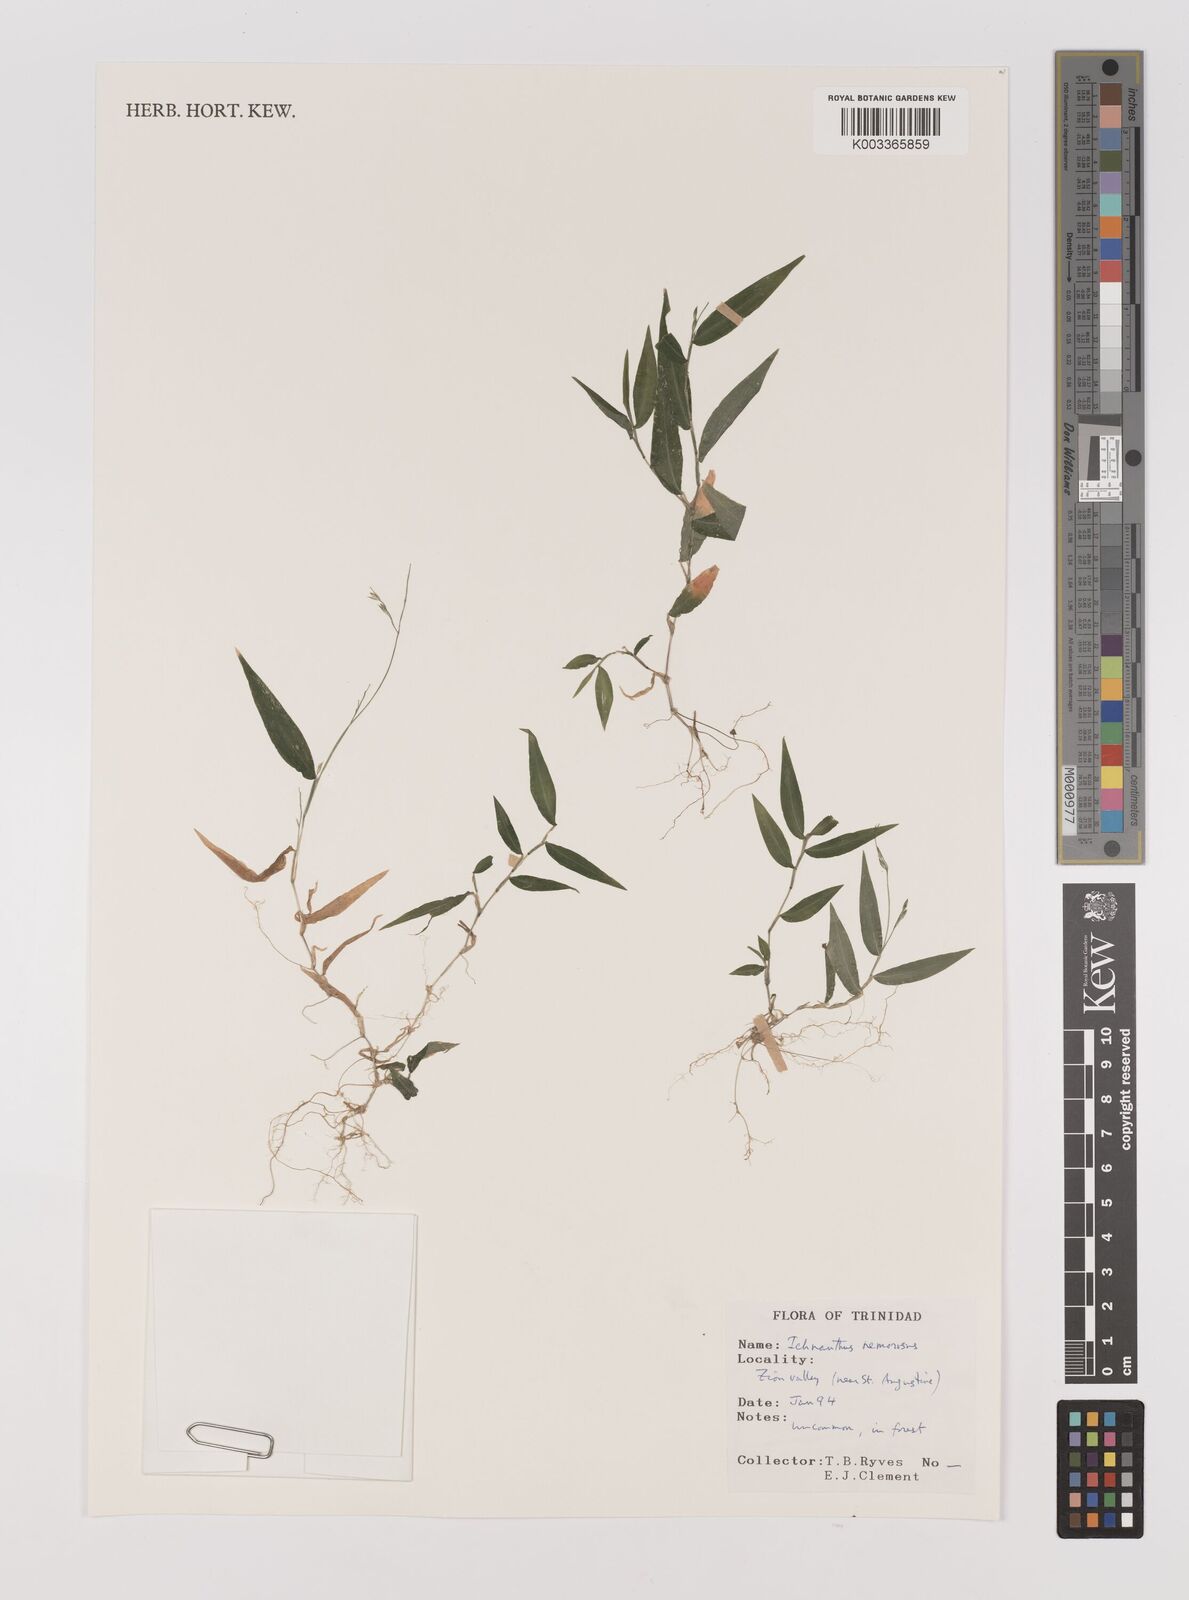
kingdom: Plantae
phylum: Tracheophyta
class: Liliopsida
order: Poales
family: Poaceae
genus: Ichnanthus
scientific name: Ichnanthus nemorosus
